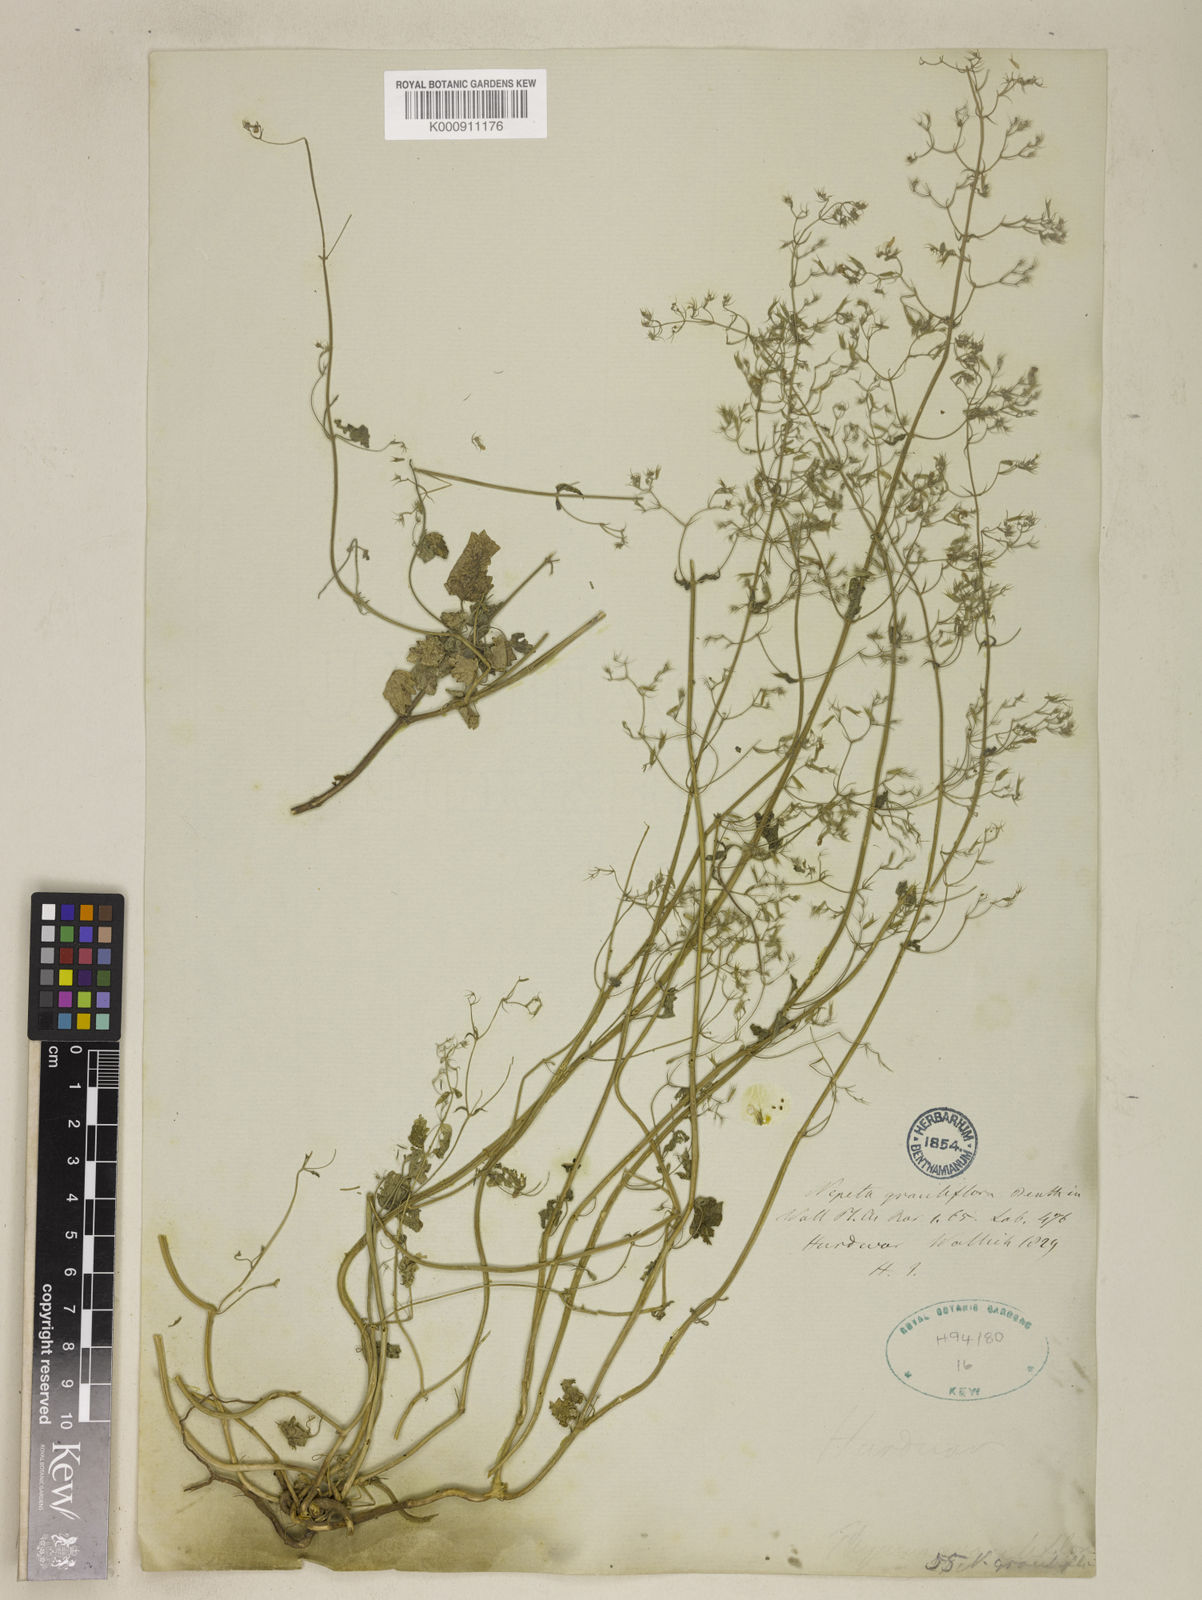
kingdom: Plantae
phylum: Tracheophyta
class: Magnoliopsida
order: Lamiales
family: Lamiaceae
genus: Nepeta
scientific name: Nepeta graciliflora
